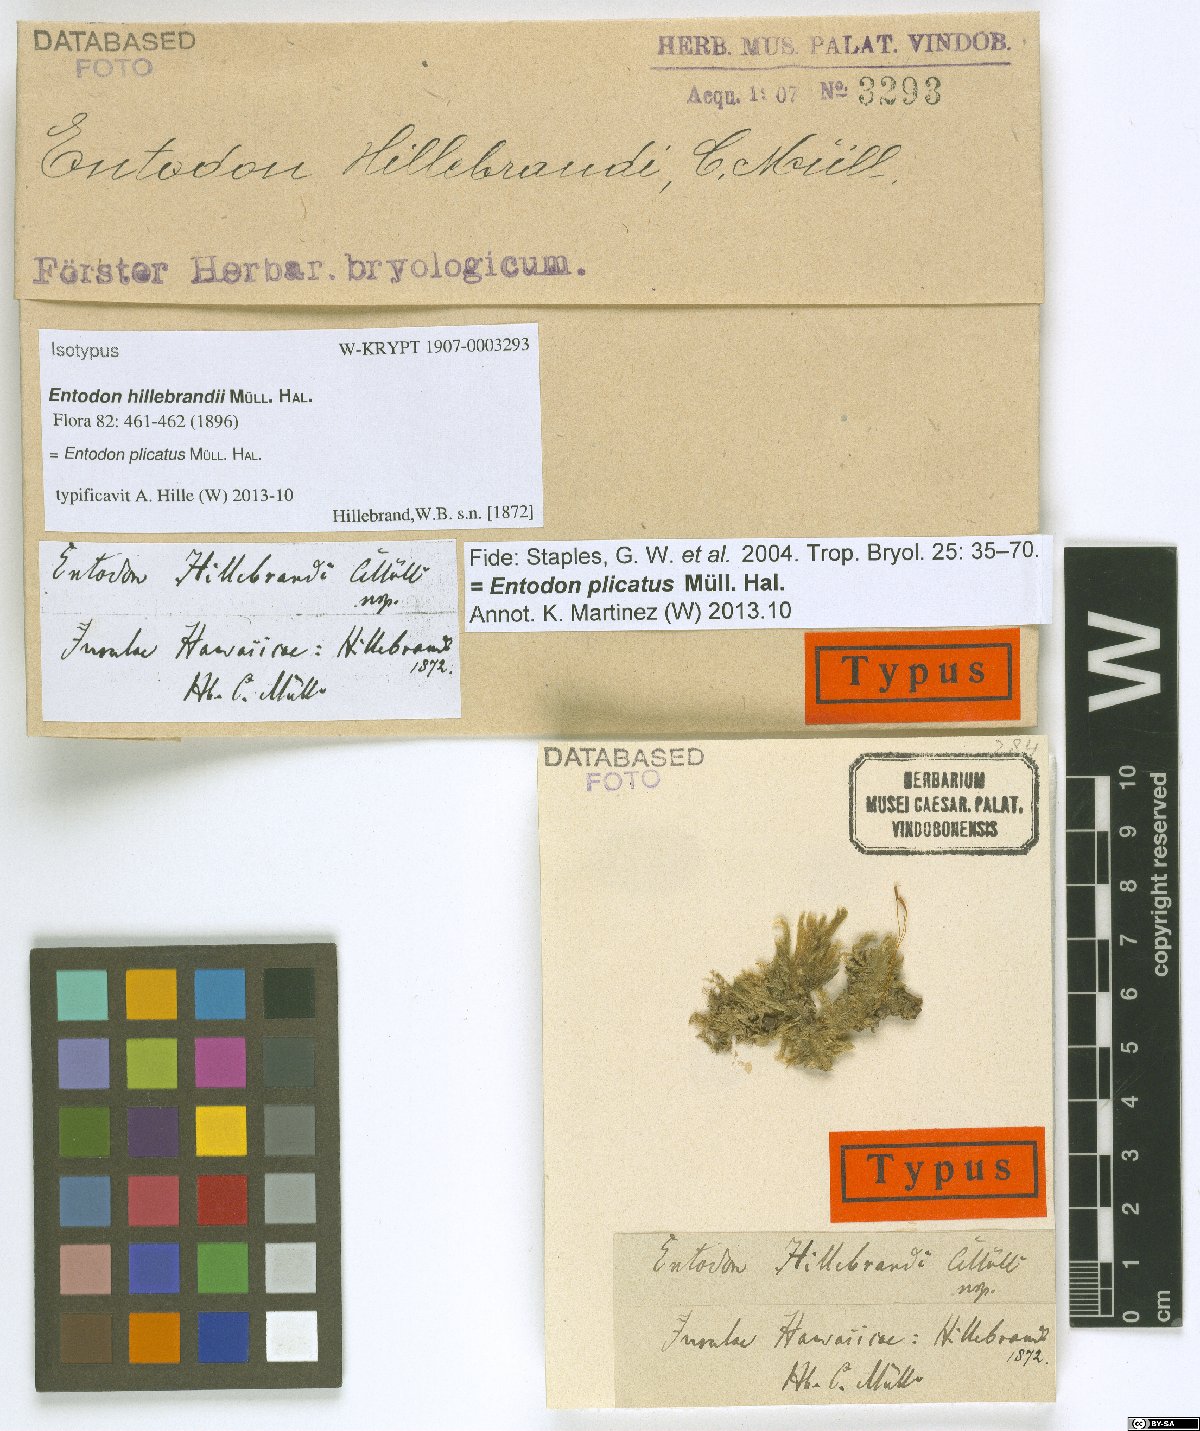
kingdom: Plantae
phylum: Bryophyta
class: Bryopsida
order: Hypnales
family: Entodontaceae
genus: Entodon
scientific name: Entodon plicatus
